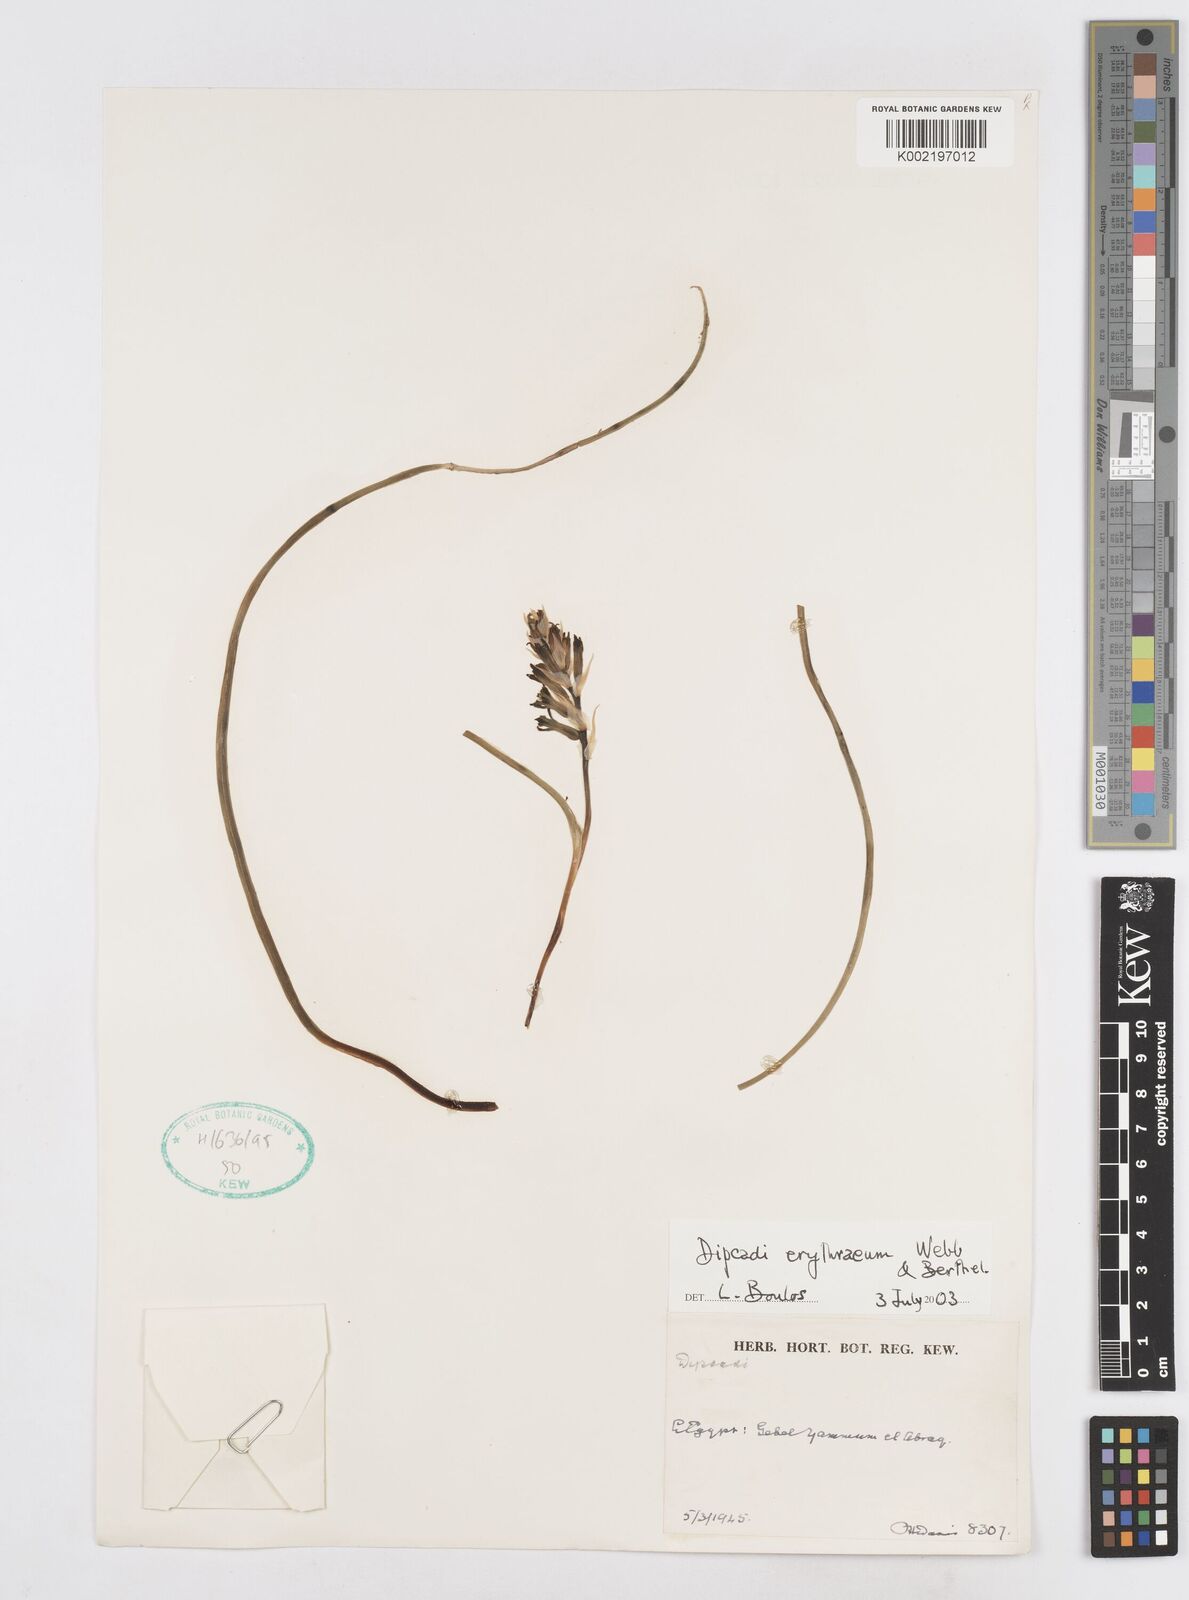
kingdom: Plantae
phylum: Tracheophyta
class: Liliopsida
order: Asparagales
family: Asparagaceae
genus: Dipcadi
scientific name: Dipcadi erythraeum
